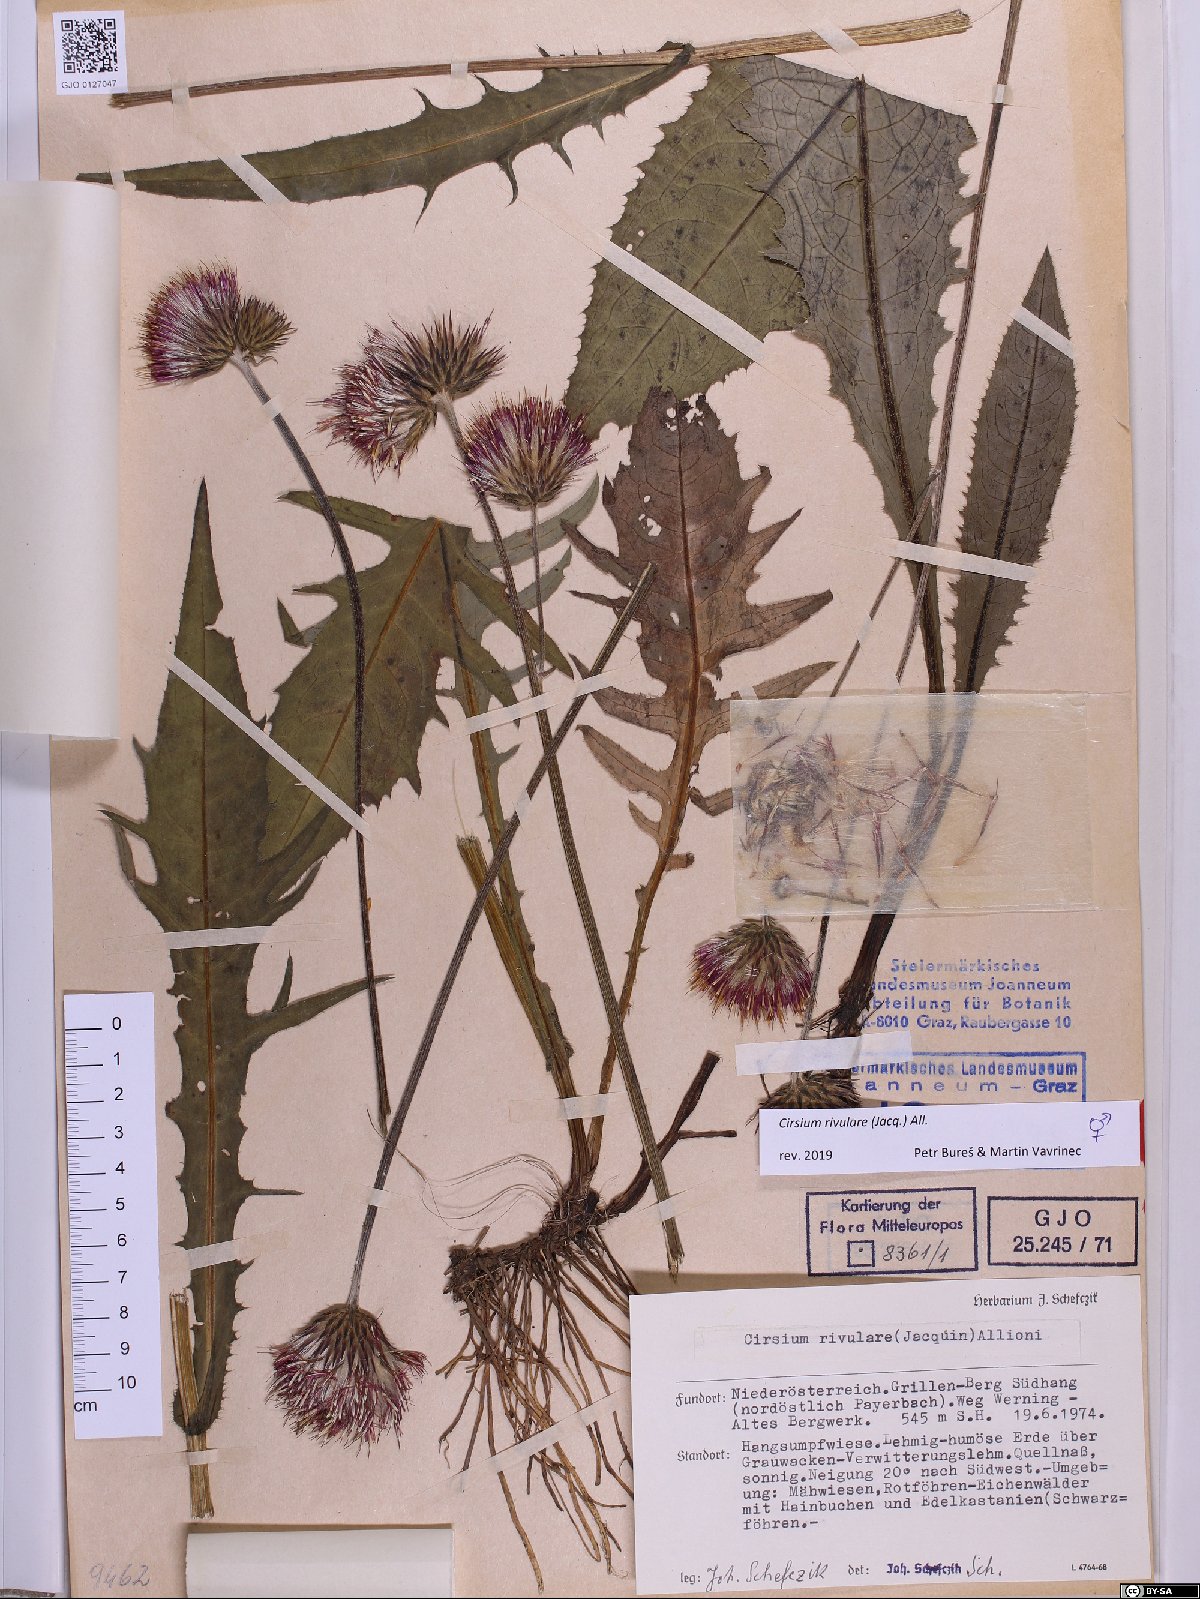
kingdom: Plantae
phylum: Tracheophyta
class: Magnoliopsida
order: Asterales
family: Asteraceae
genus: Cirsium
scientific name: Cirsium rivulare
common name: Brook thistle
